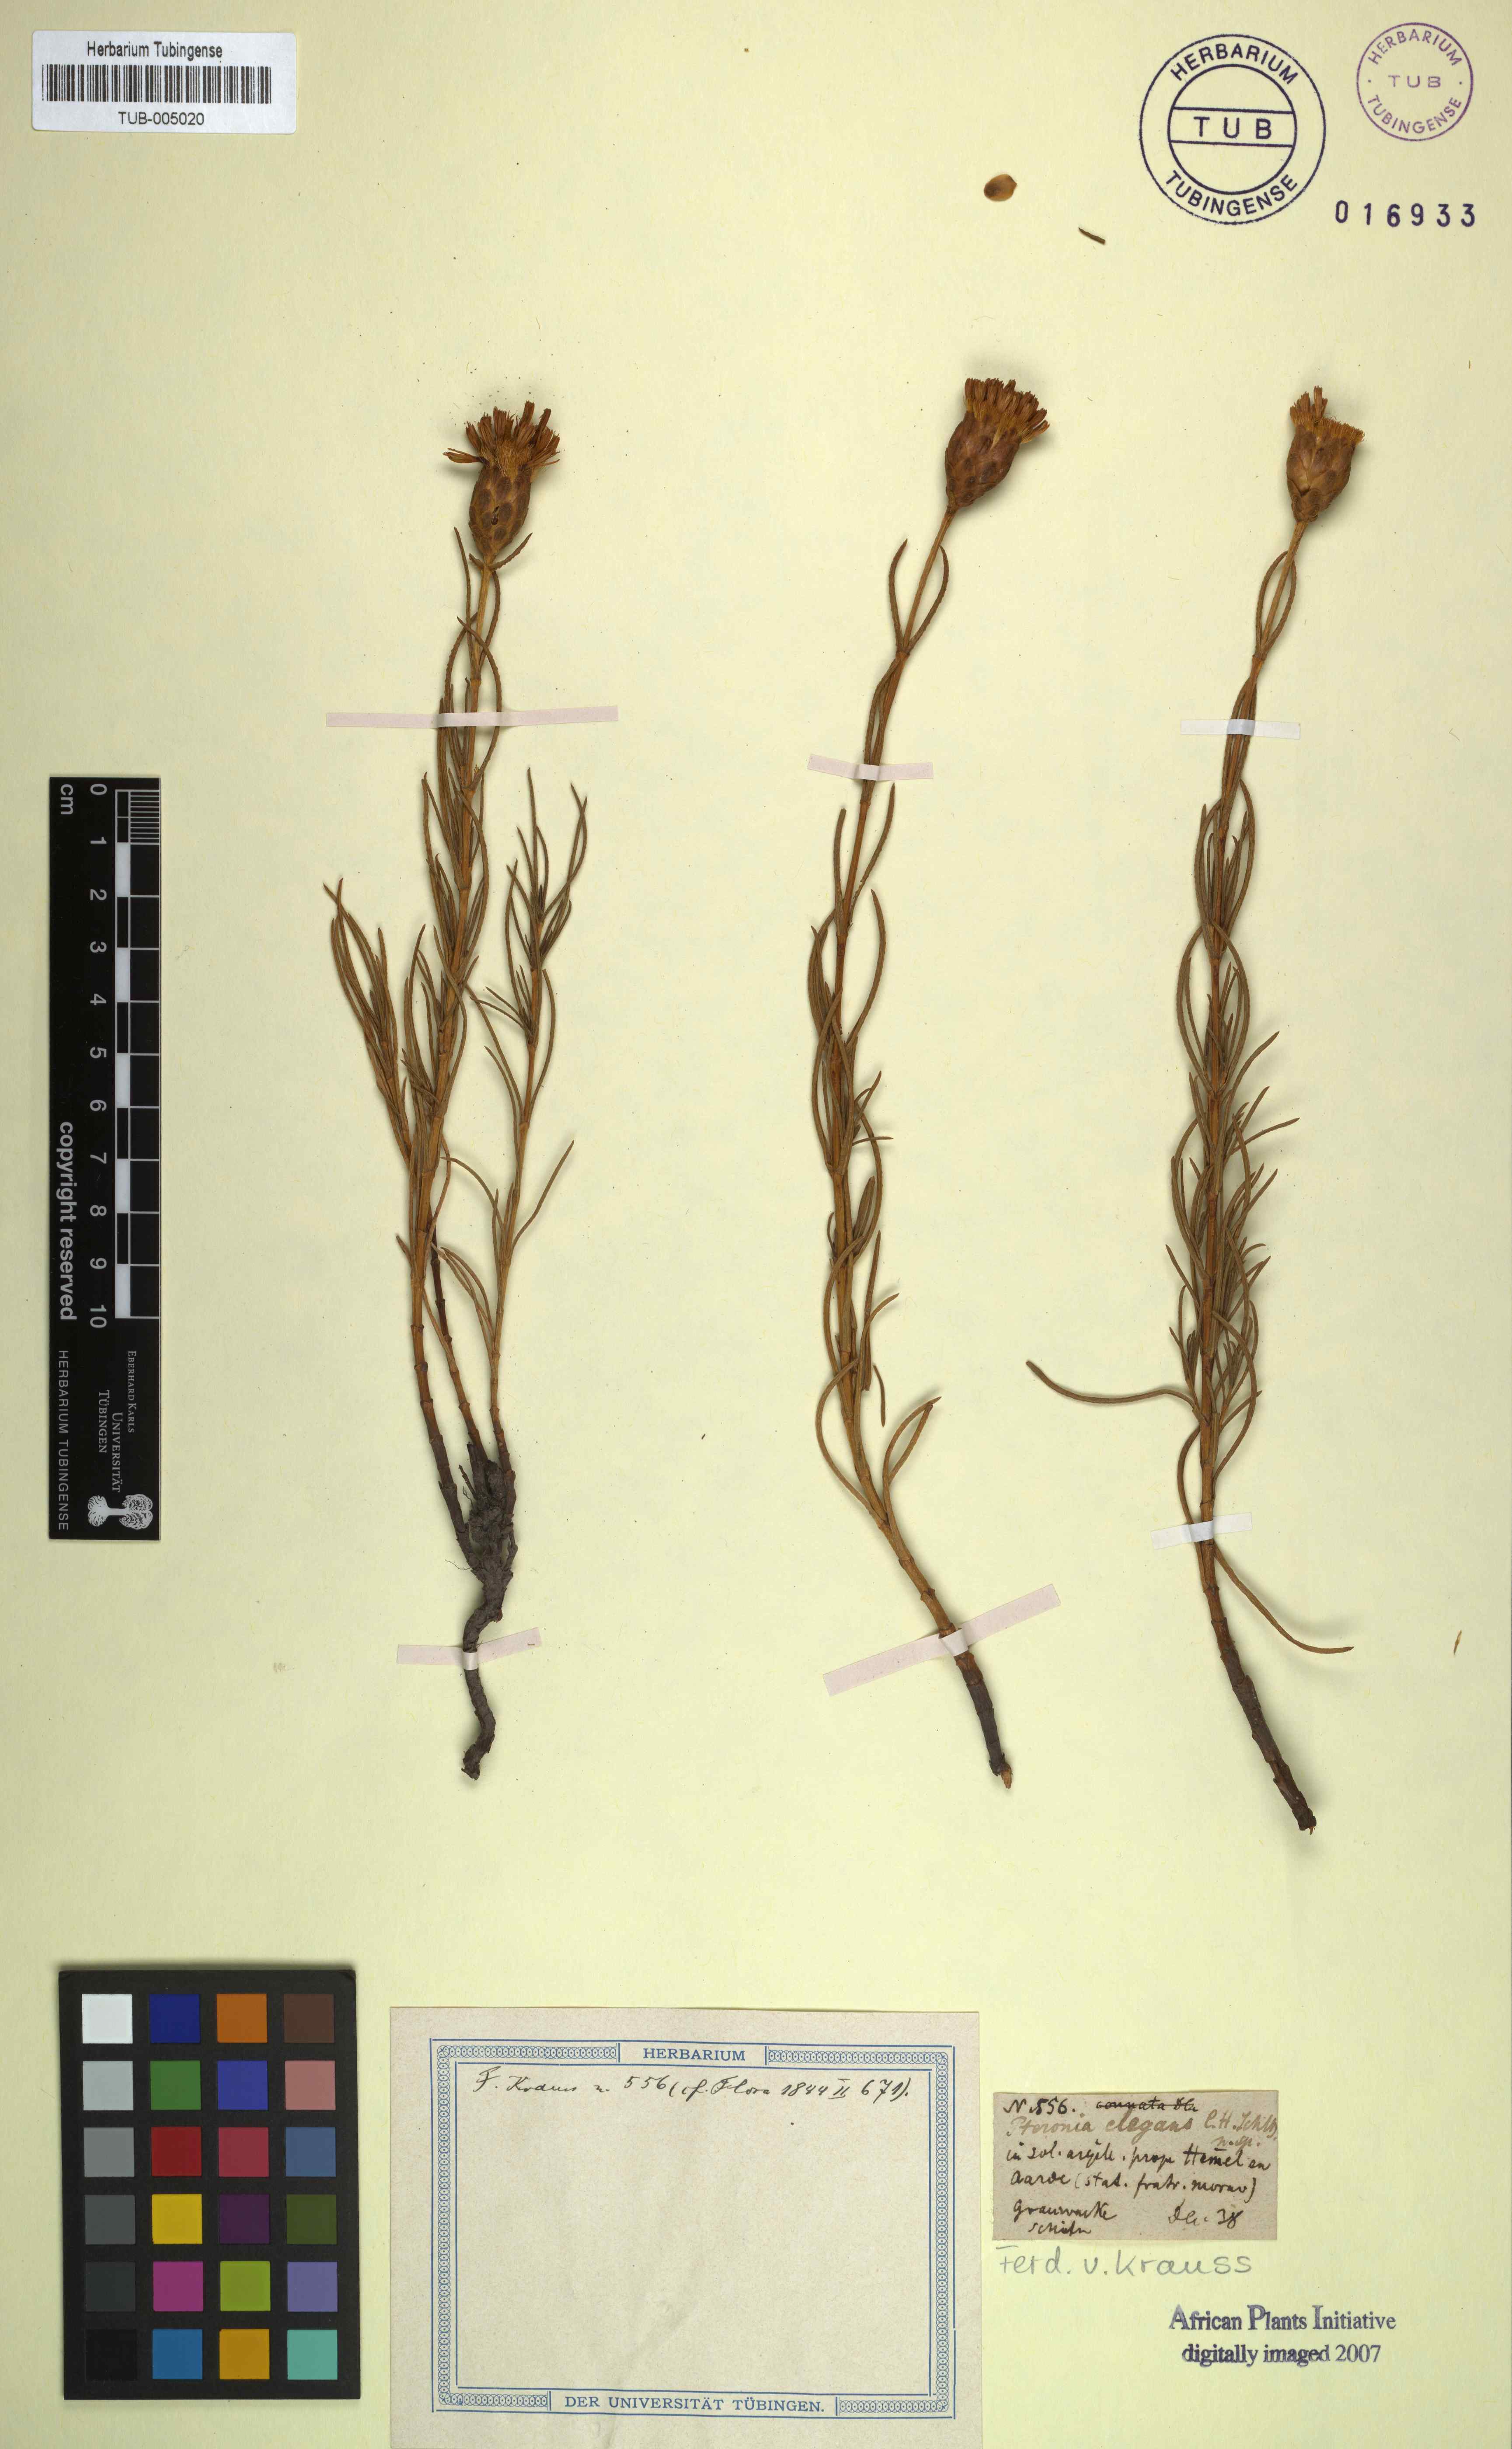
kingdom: Plantae
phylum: Tracheophyta
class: Magnoliopsida
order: Asterales
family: Asteraceae
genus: Pteronia
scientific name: Pteronia tenuifolia
